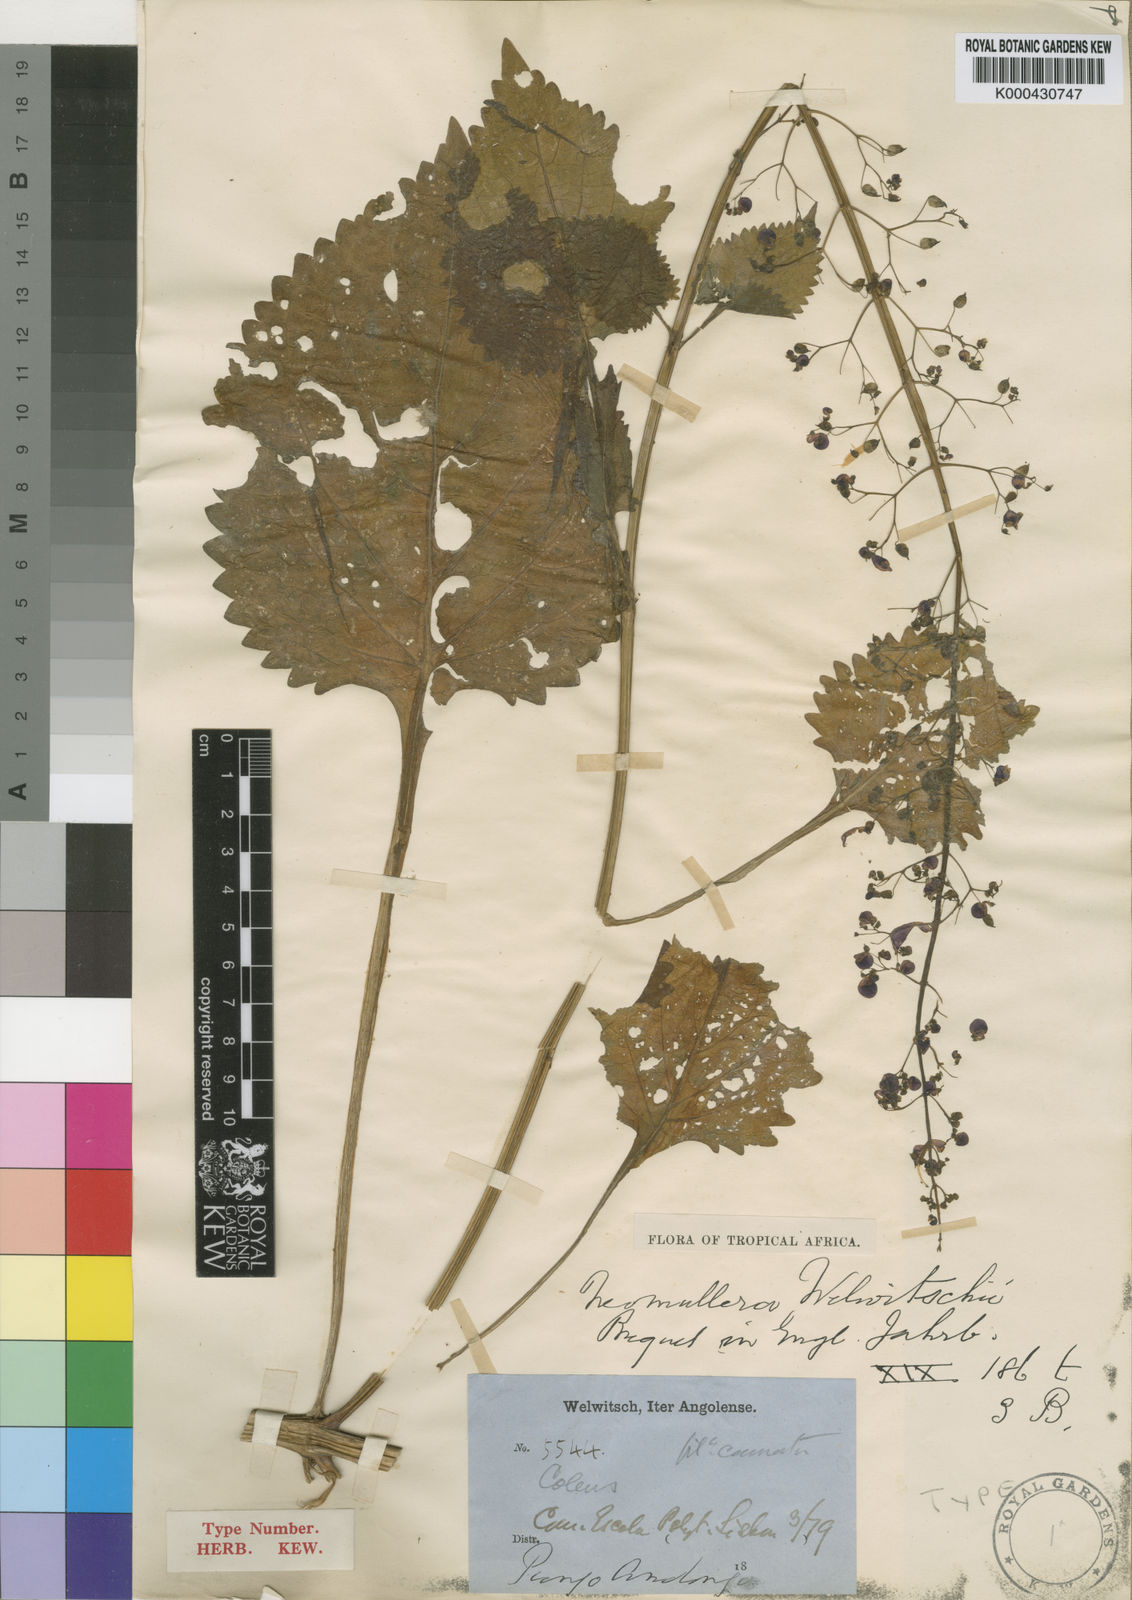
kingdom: Plantae
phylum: Tracheophyta
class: Magnoliopsida
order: Lamiales
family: Lamiaceae
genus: Plectranthus
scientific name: Plectranthus
